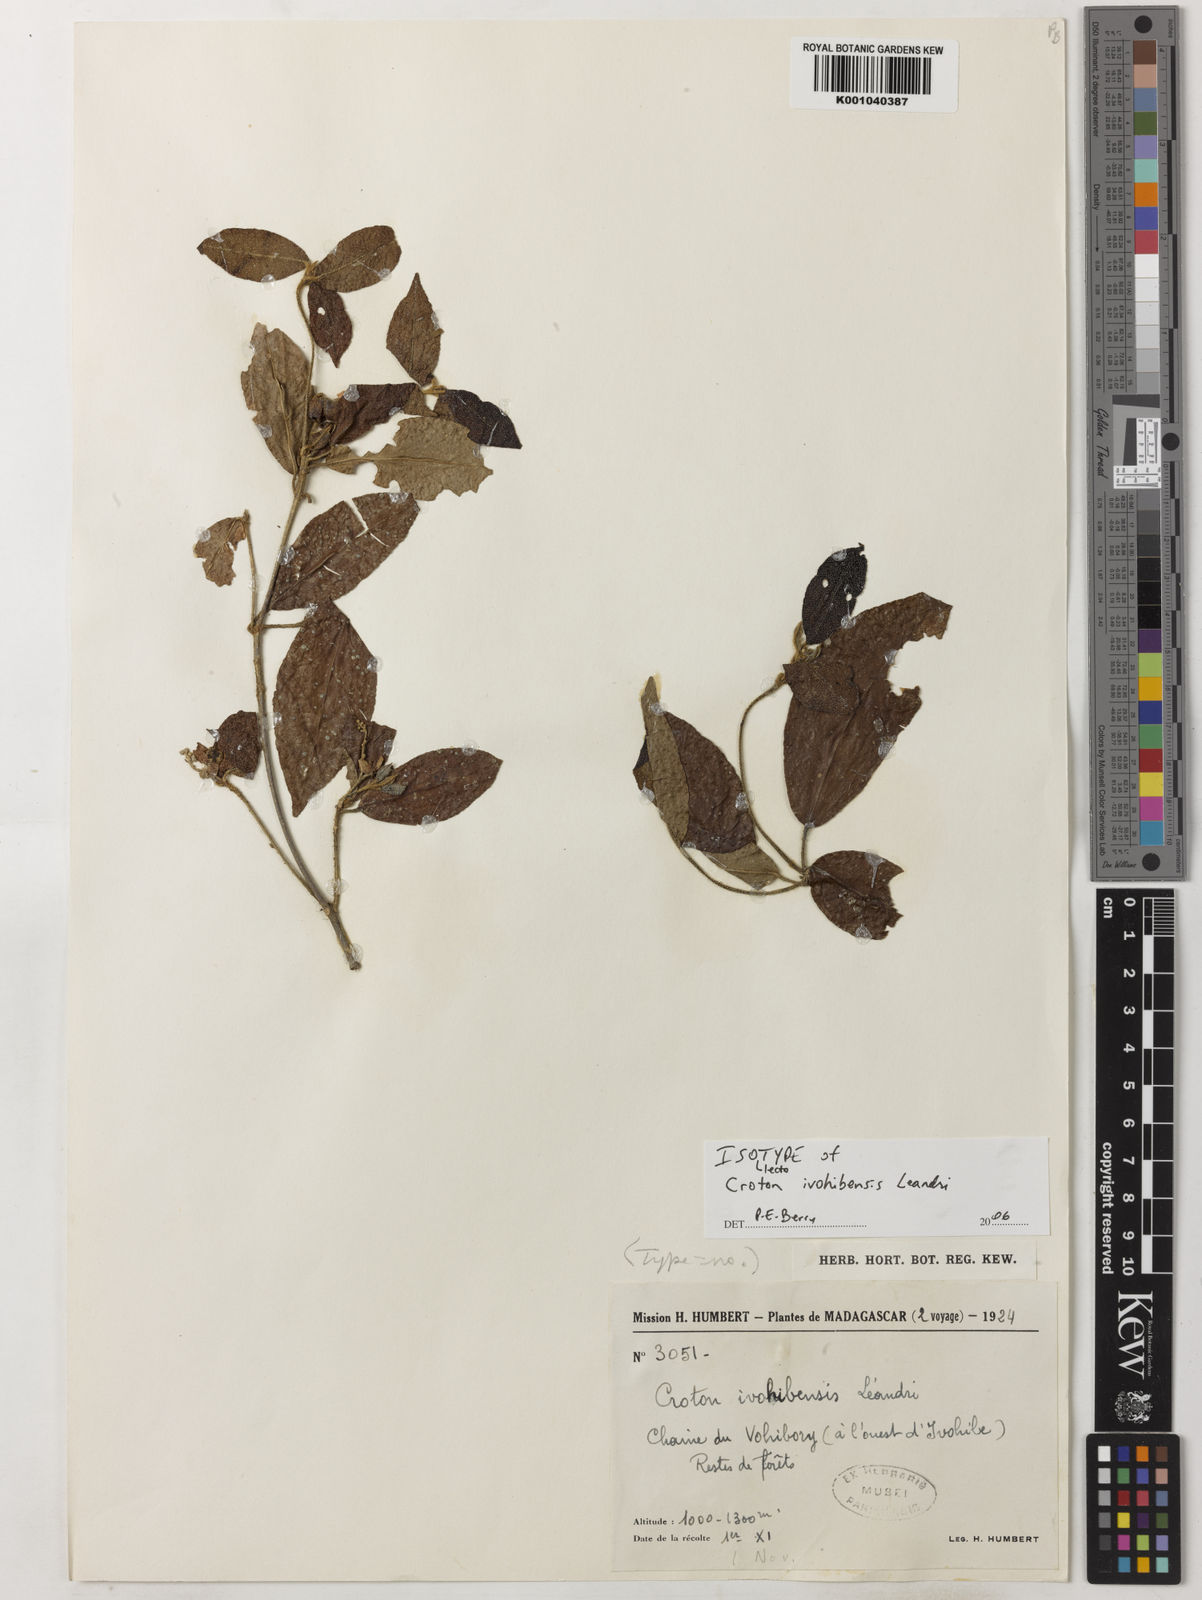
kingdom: Plantae
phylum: Tracheophyta
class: Magnoliopsida
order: Malpighiales
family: Euphorbiaceae
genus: Croton
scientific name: Croton hovarum
